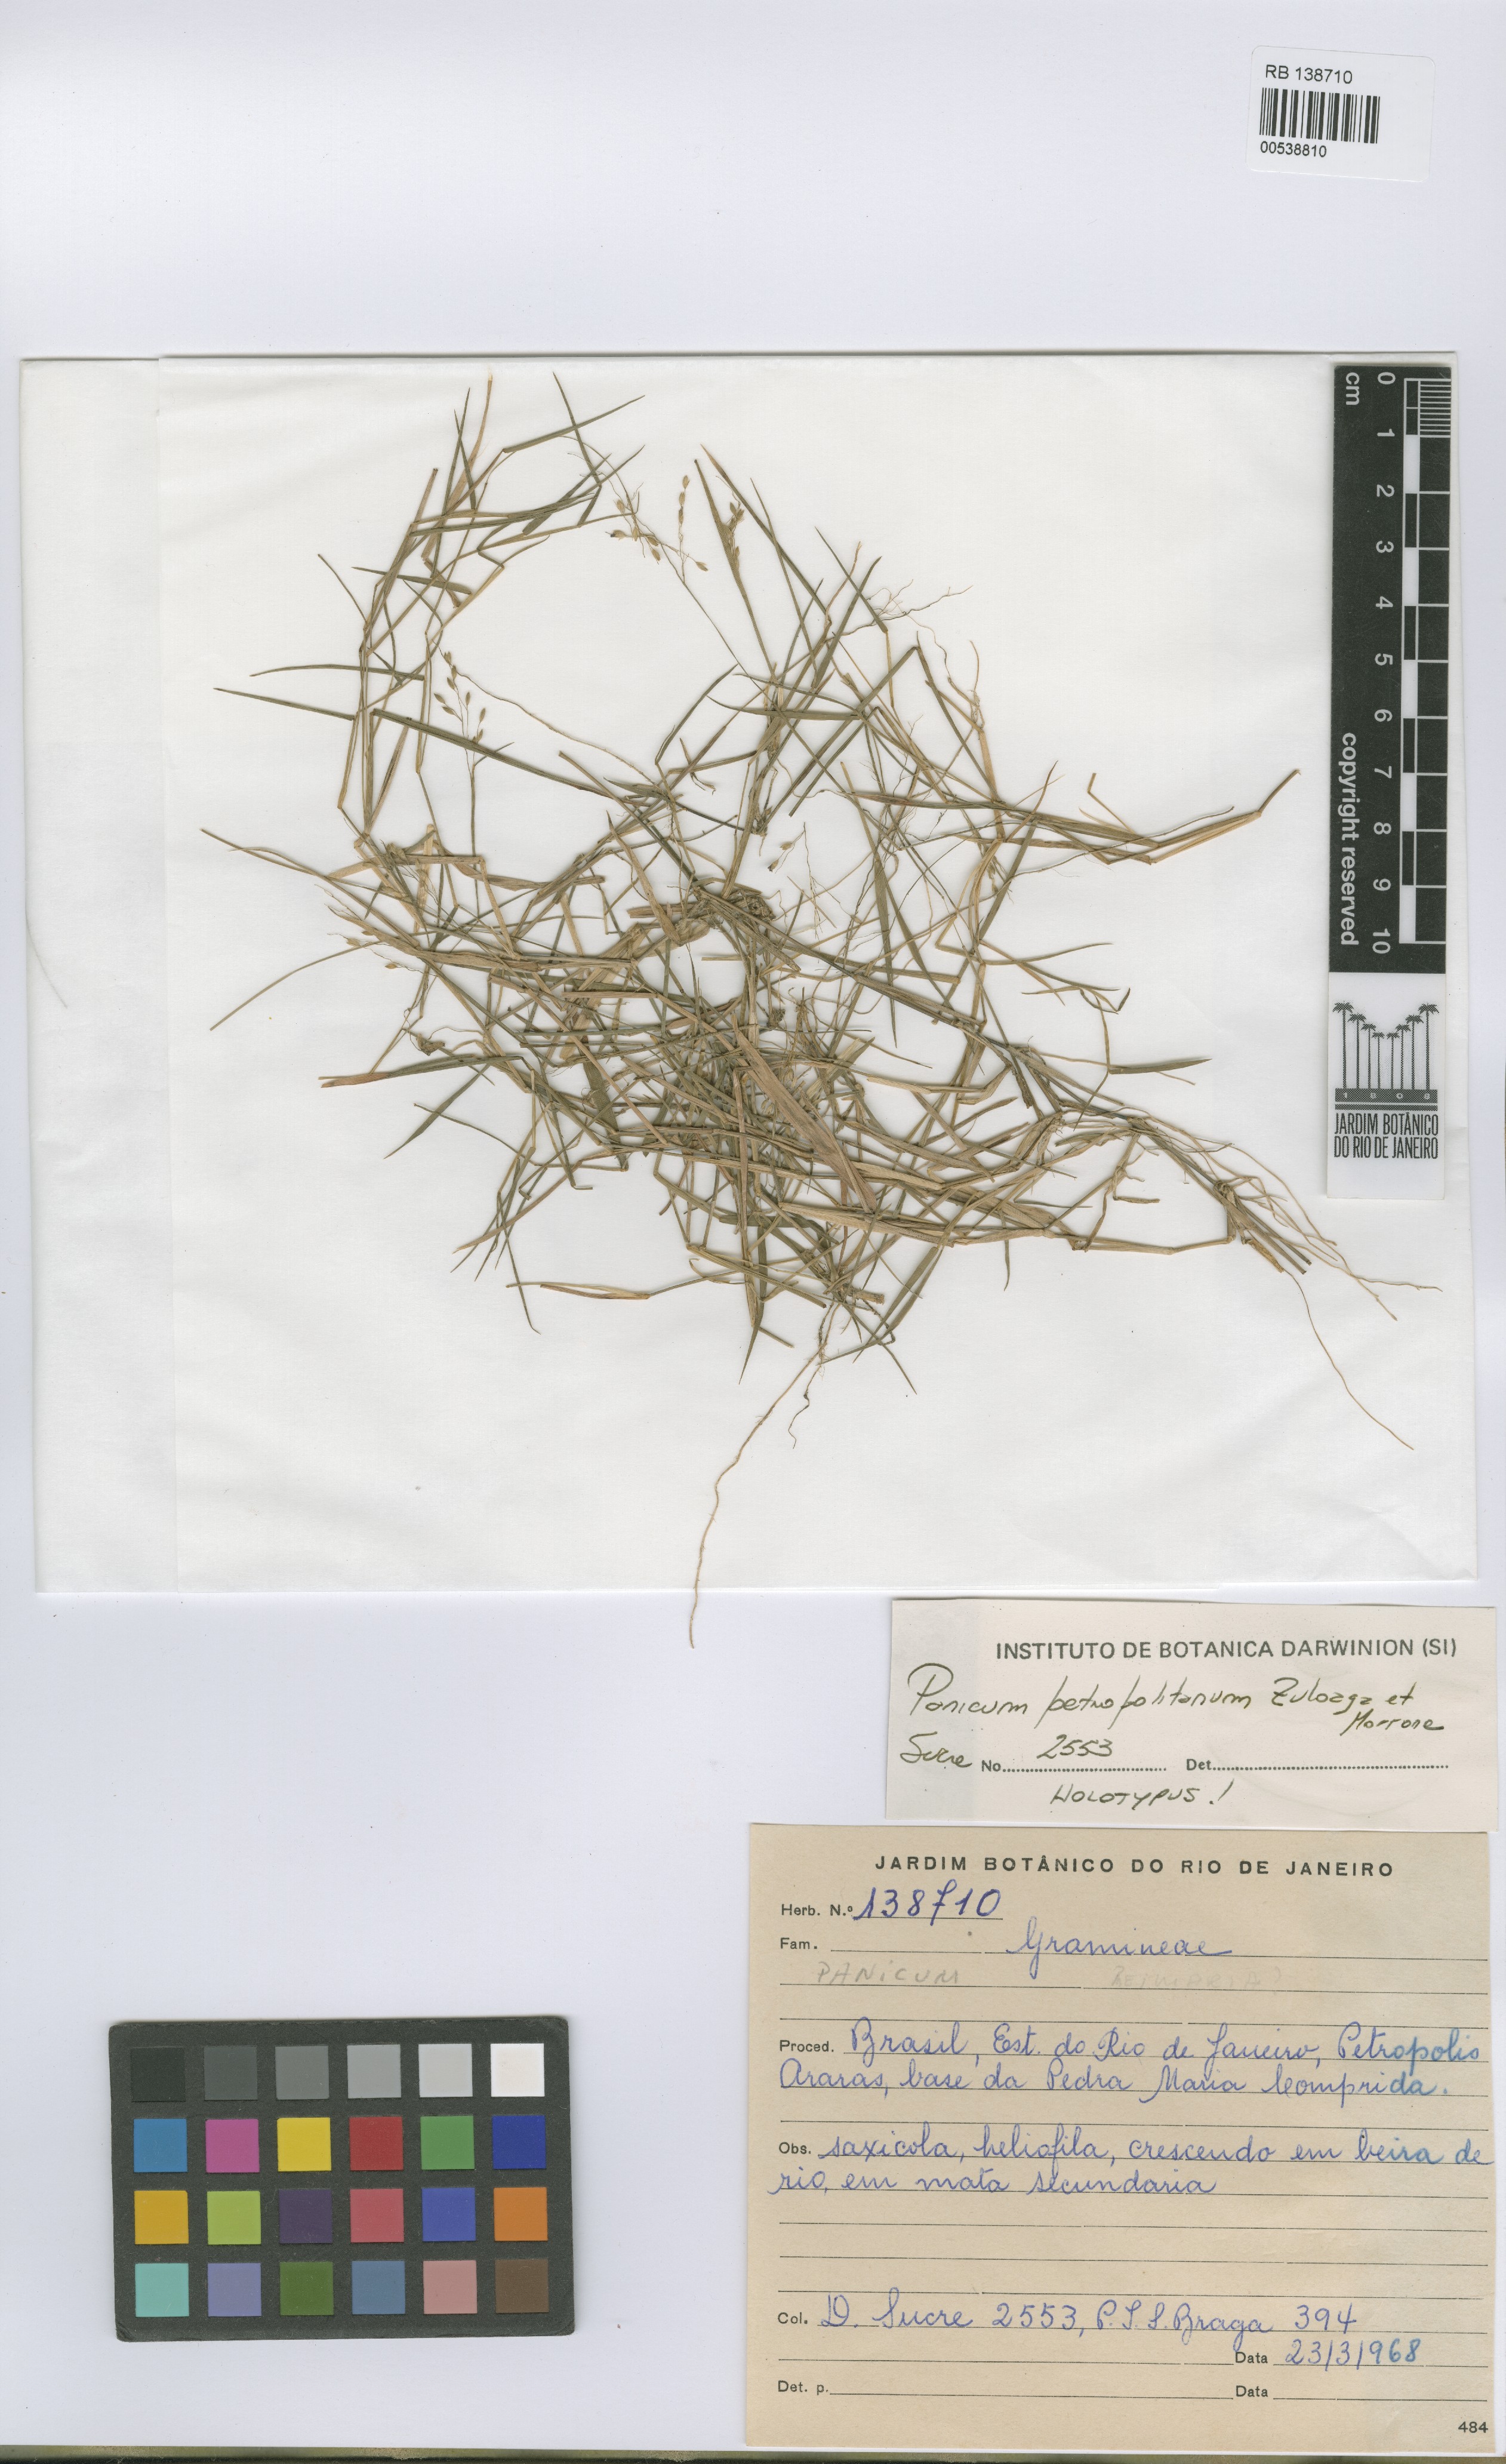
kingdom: Plantae
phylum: Tracheophyta
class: Liliopsida
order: Poales
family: Poaceae
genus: Dichanthelium
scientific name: Dichanthelium petropolitanum
